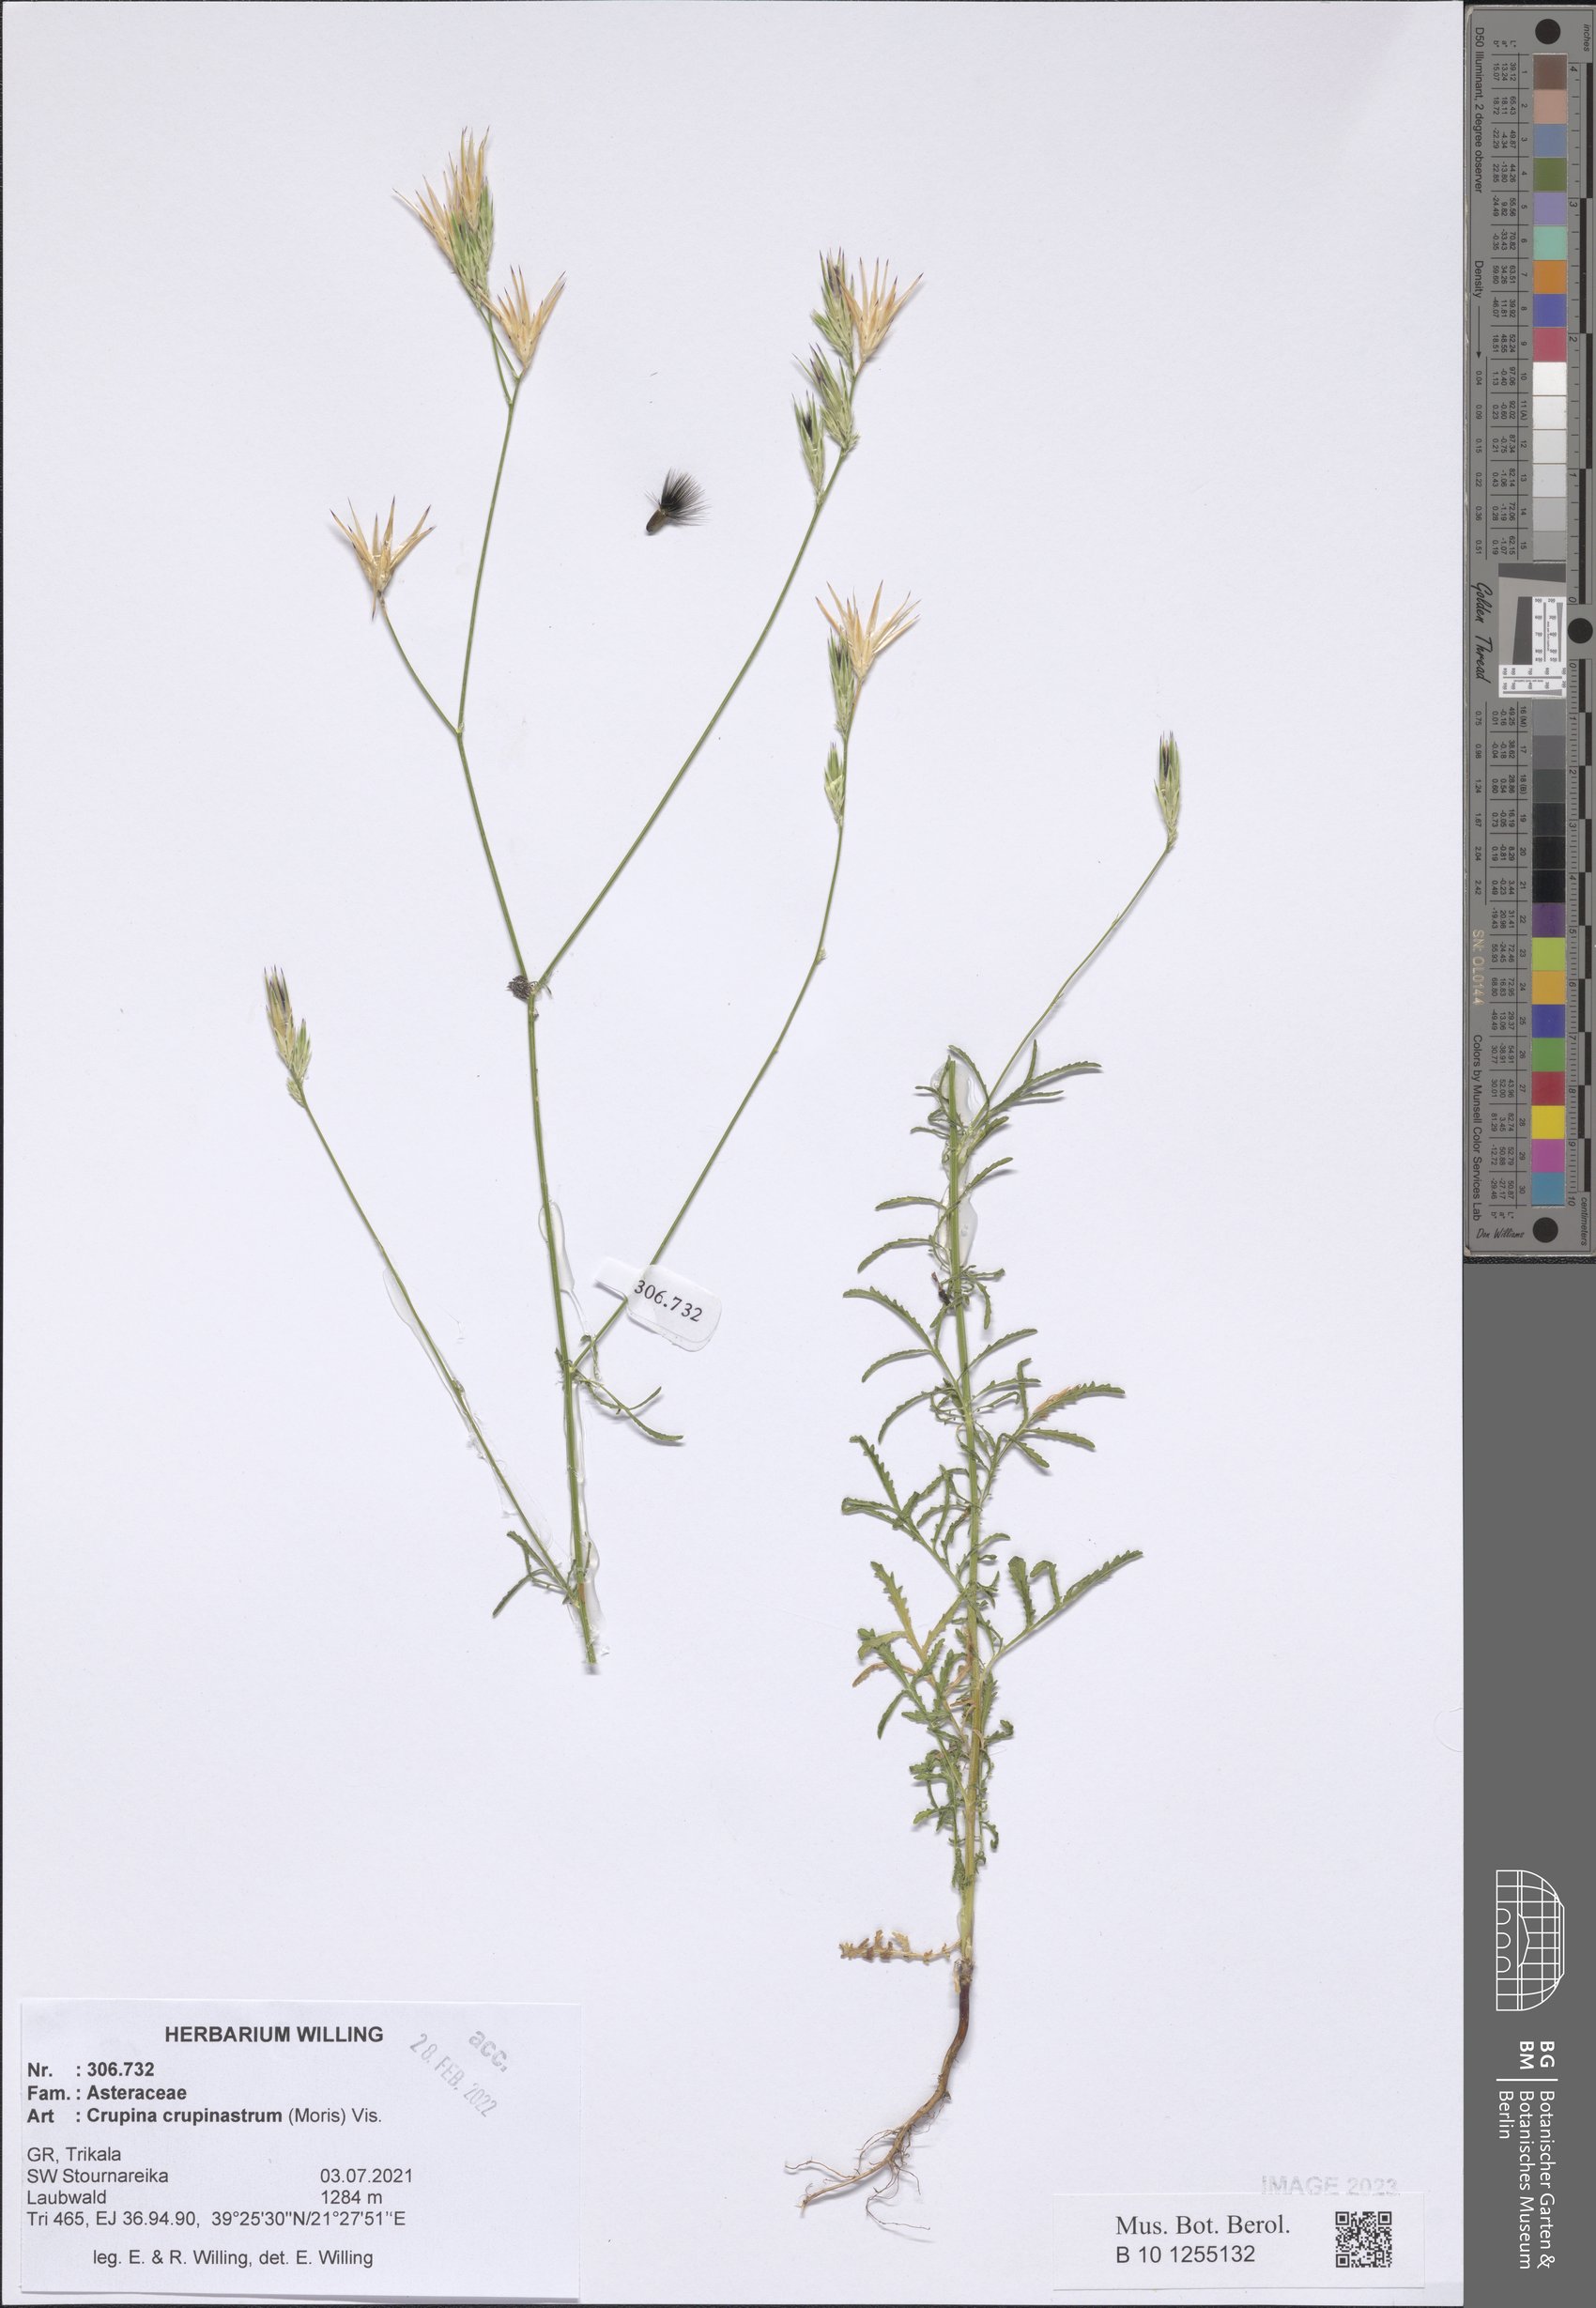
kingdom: Plantae
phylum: Tracheophyta
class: Magnoliopsida
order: Asterales
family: Asteraceae
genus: Crupina
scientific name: Crupina crupinastrum
